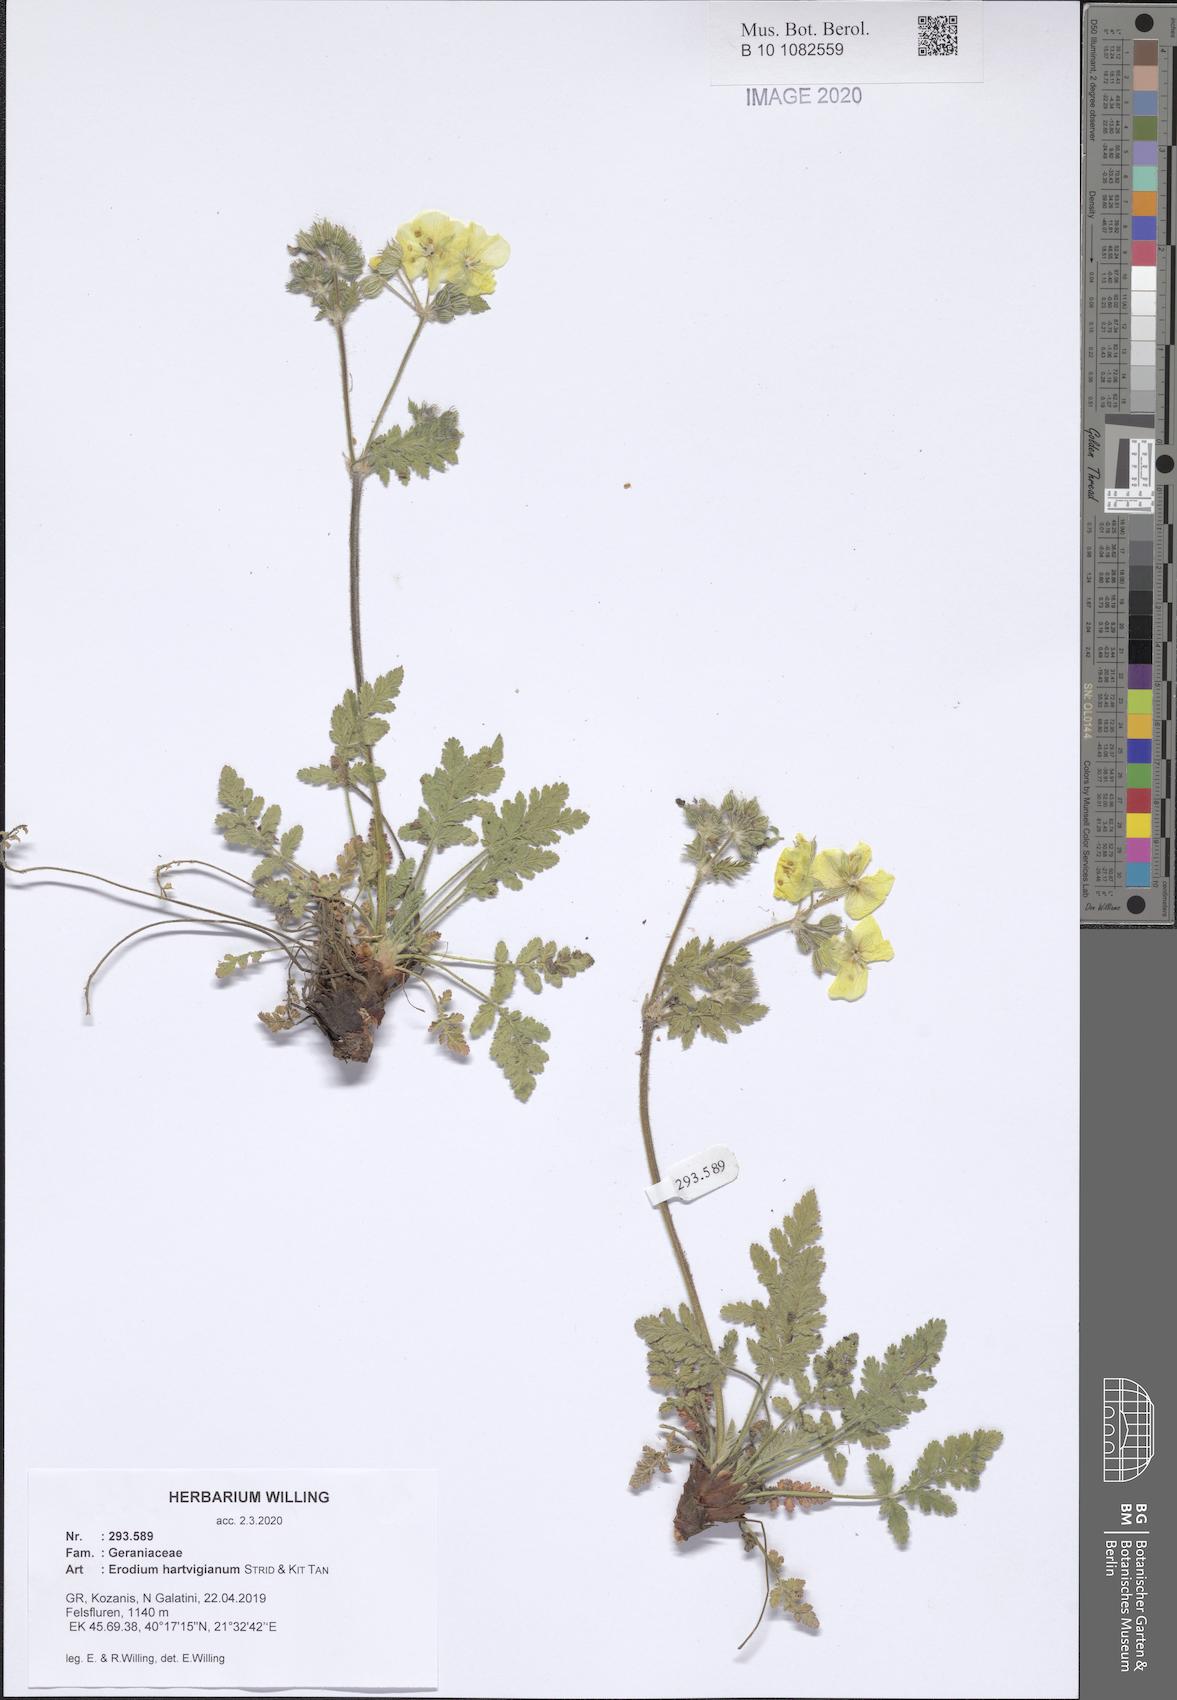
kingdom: Plantae
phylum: Tracheophyta
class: Magnoliopsida
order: Geraniales
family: Geraniaceae
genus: Erodium
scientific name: Erodium hartvigianum
